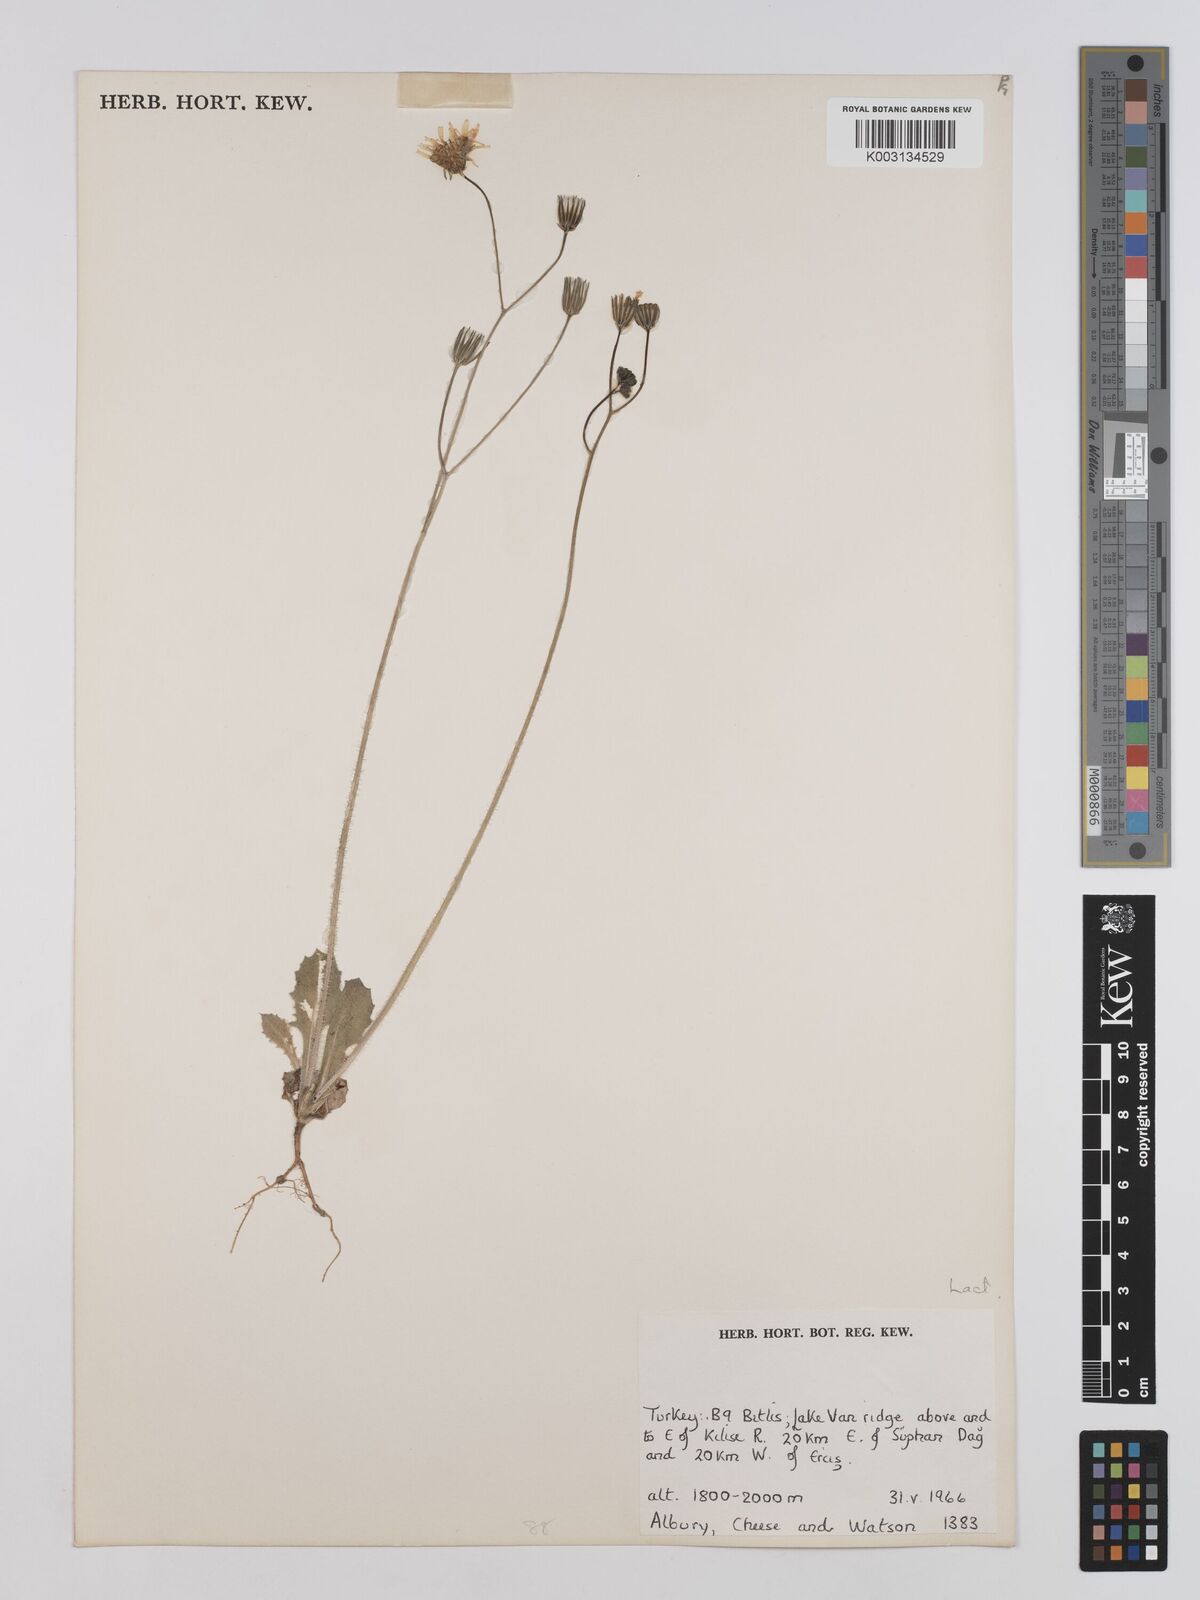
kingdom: Plantae
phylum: Tracheophyta
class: Magnoliopsida
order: Asterales
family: Asteraceae
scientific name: Asteraceae
